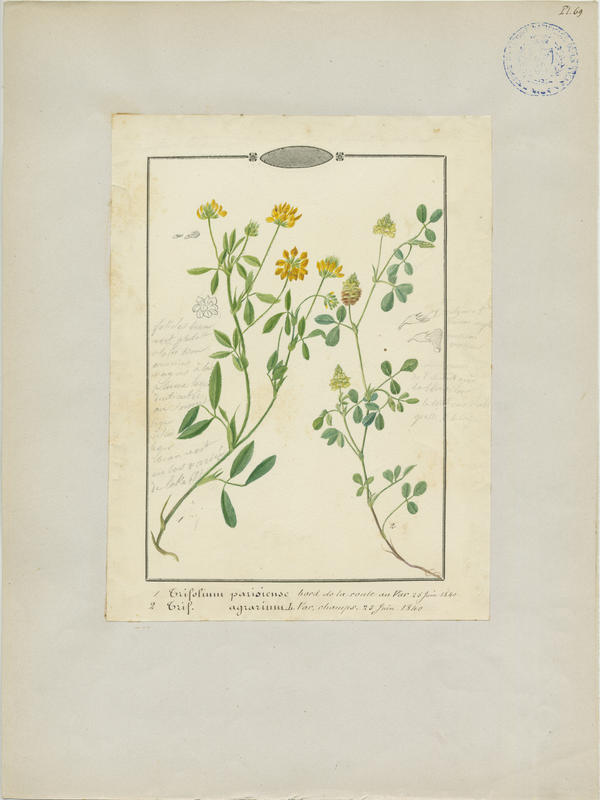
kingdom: Plantae
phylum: Tracheophyta
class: Magnoliopsida
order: Fabales
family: Fabaceae
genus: Trifolium
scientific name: Trifolium aureum
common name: Golden clover
